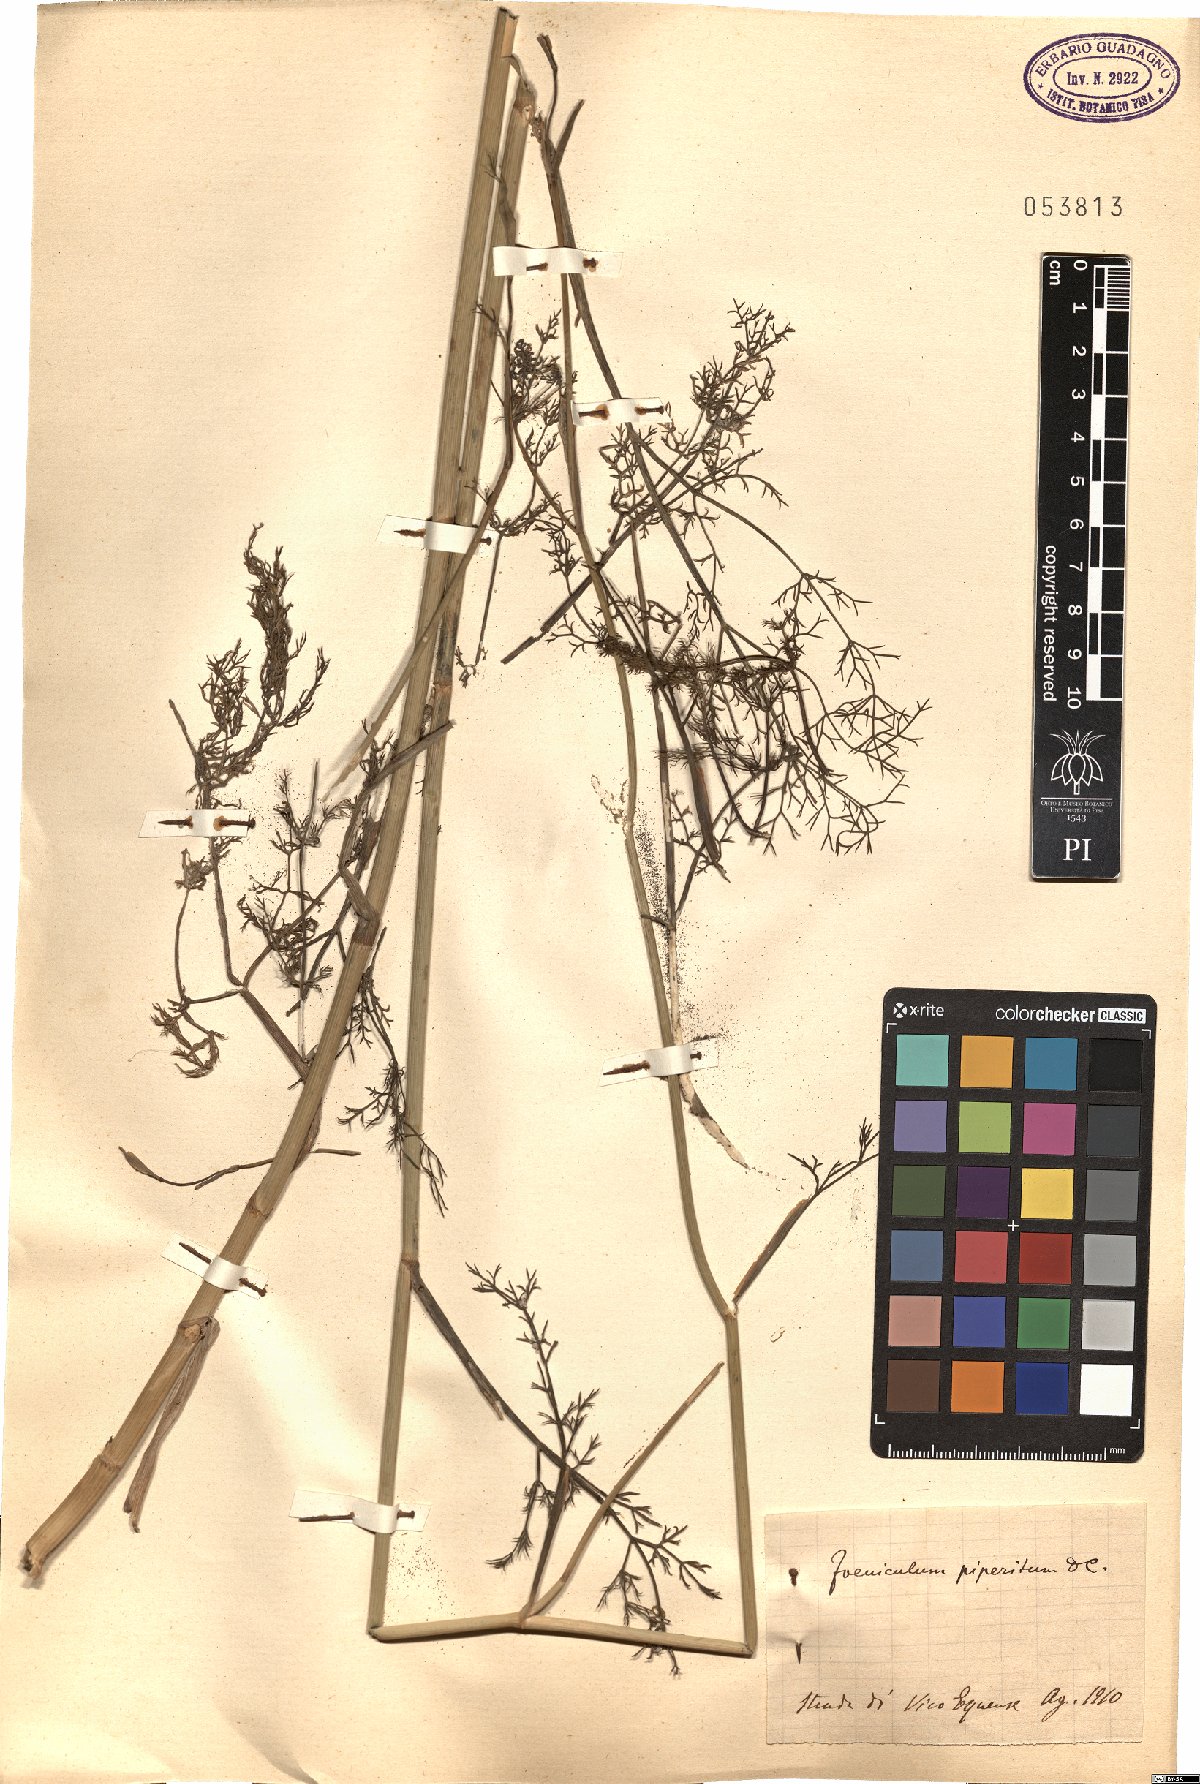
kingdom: Plantae
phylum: Tracheophyta
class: Magnoliopsida
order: Apiales
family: Apiaceae
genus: Foeniculum
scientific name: Foeniculum vulgare
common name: Fennel
